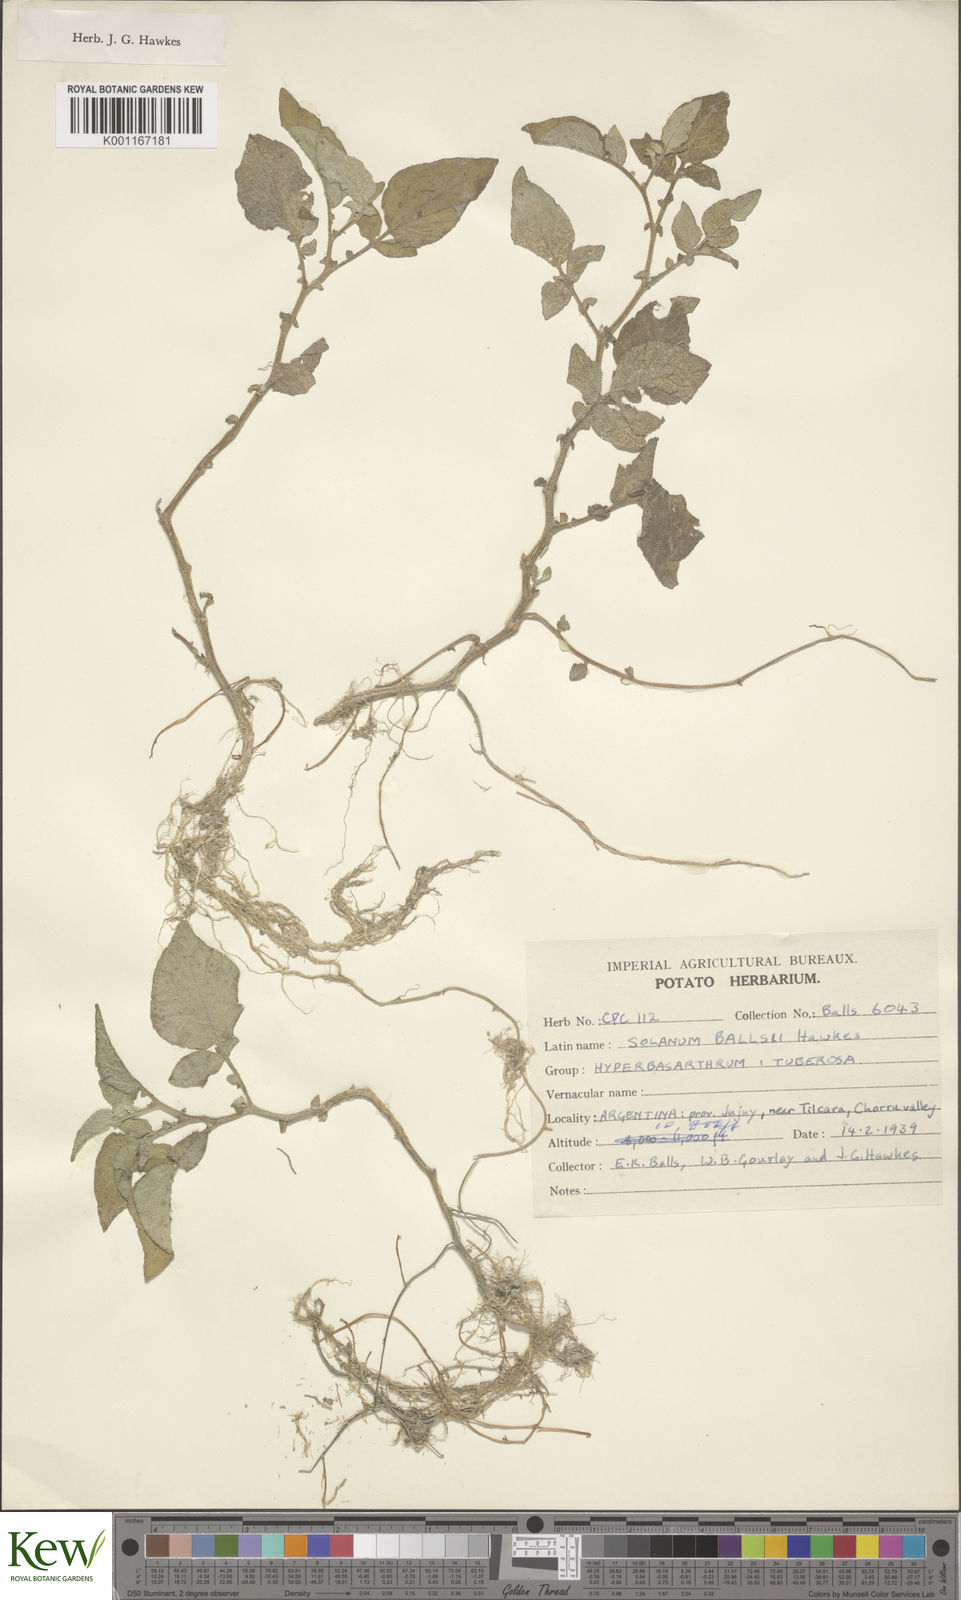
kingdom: Plantae
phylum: Tracheophyta
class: Magnoliopsida
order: Solanales
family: Solanaceae
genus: Solanum
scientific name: Solanum vernei
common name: Purple potato
